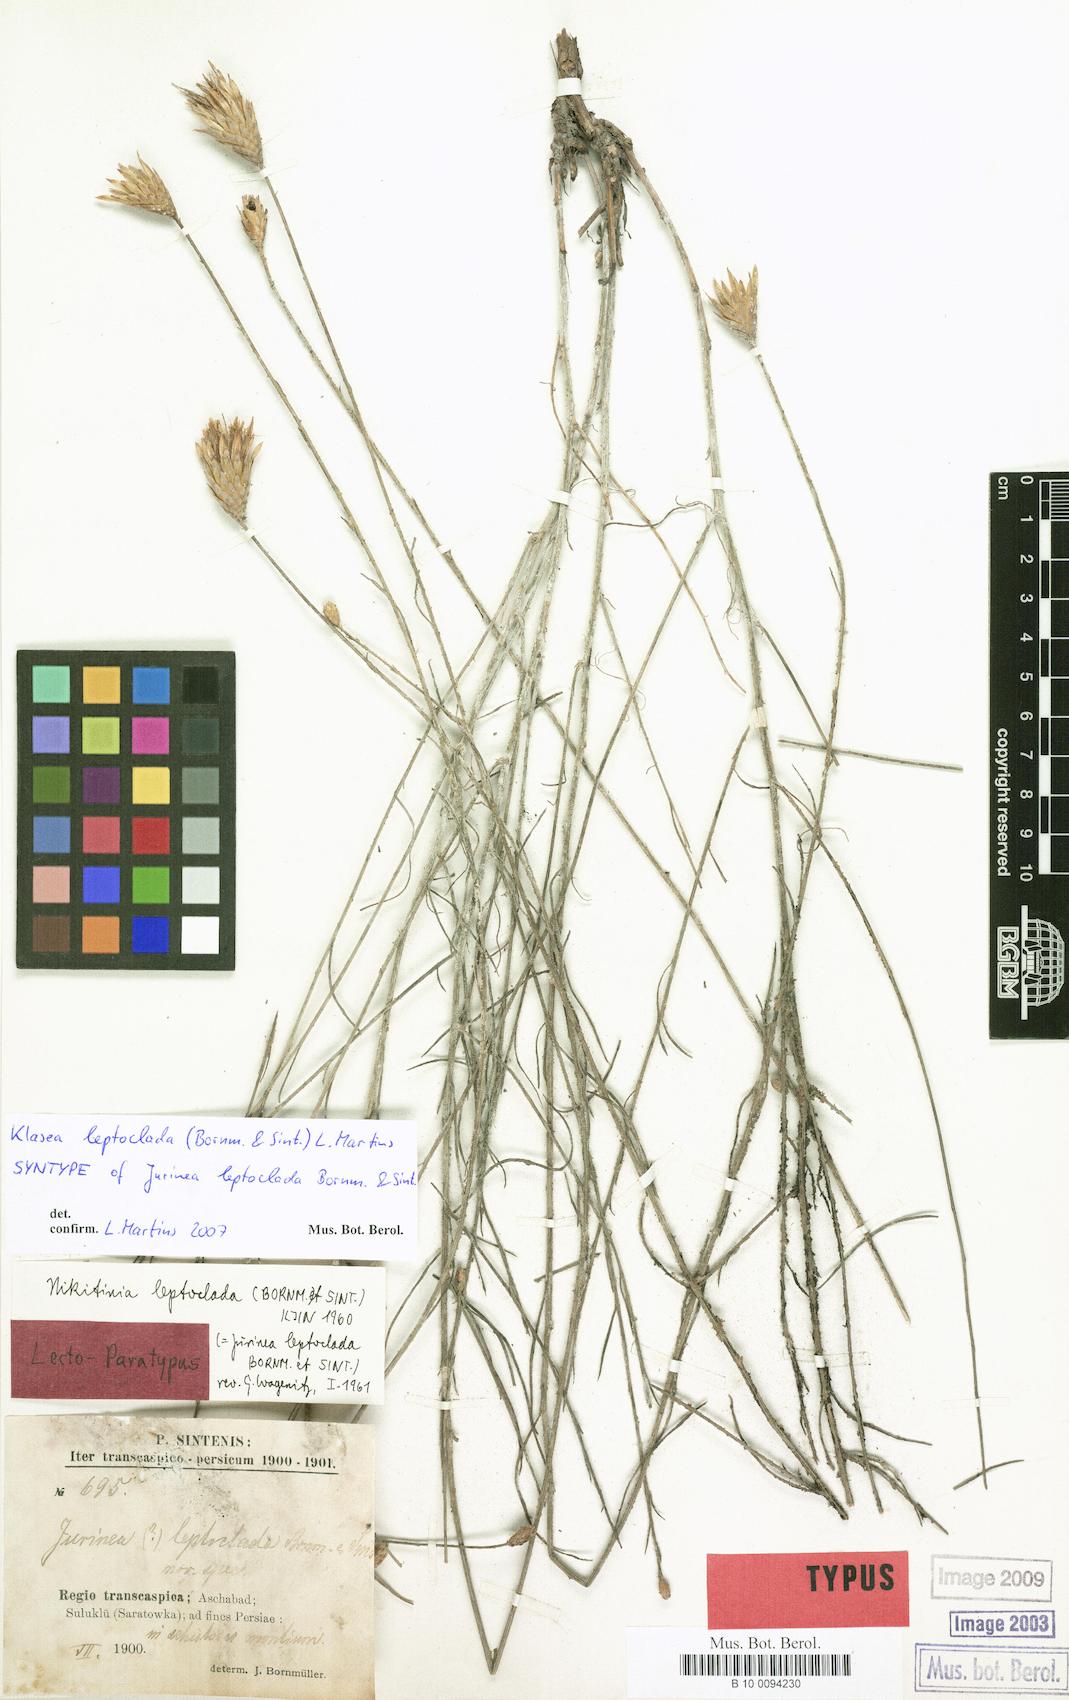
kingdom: Plantae
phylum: Tracheophyta
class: Magnoliopsida
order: Asterales
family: Asteraceae
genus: Klasea
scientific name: Klasea leptoclada
